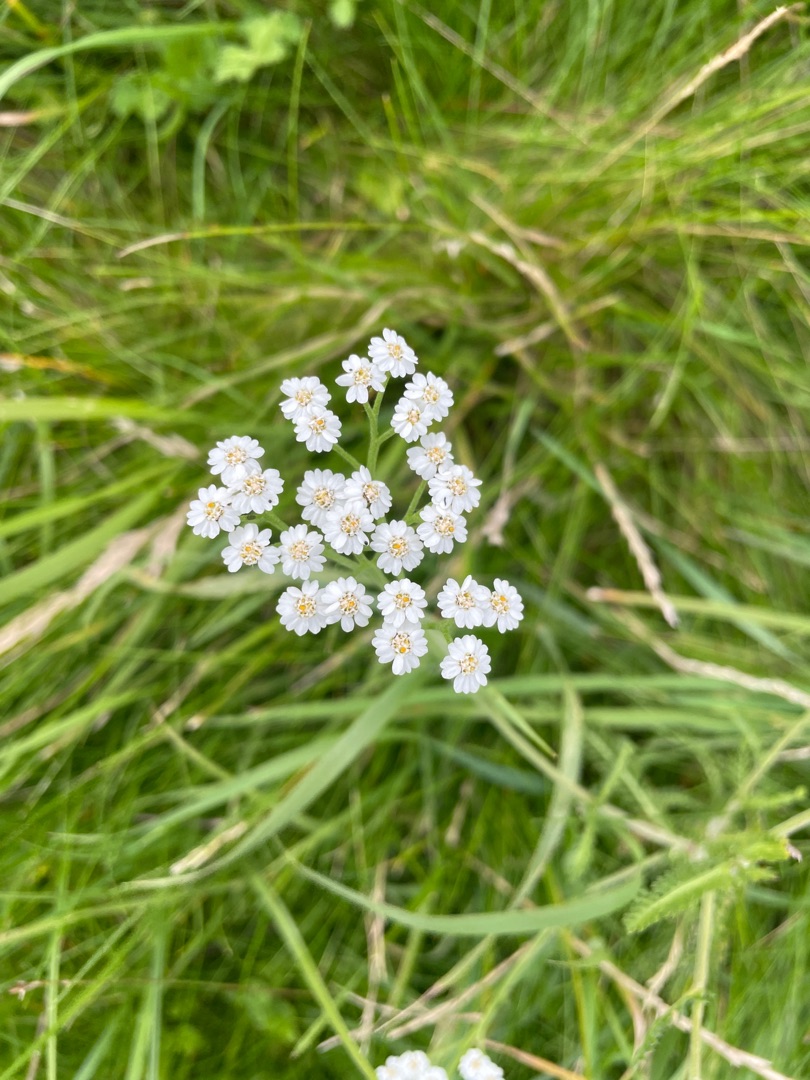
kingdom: Plantae
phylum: Tracheophyta
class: Magnoliopsida
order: Asterales
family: Asteraceae
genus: Achillea
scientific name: Achillea ptarmica
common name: Nyse-røllike
